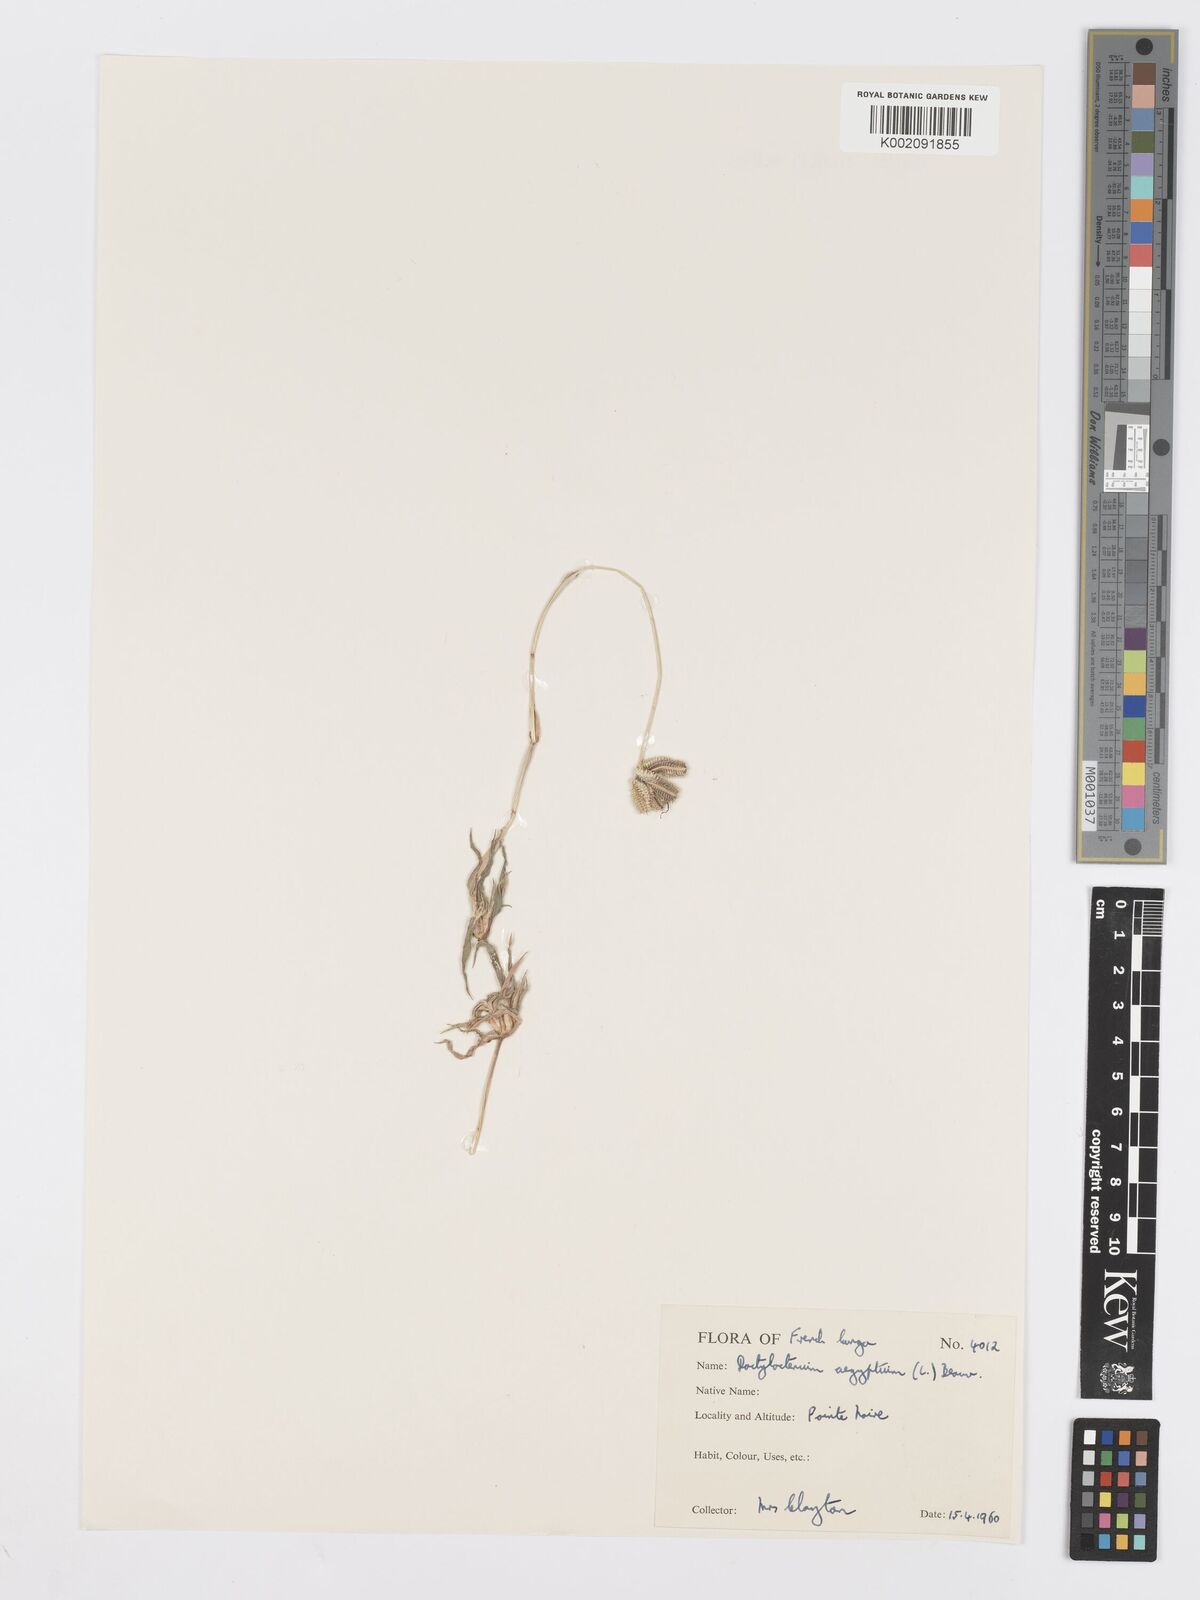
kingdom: Plantae
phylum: Tracheophyta
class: Liliopsida
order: Poales
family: Poaceae
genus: Dactyloctenium
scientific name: Dactyloctenium aegyptium
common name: Egyptian grass
